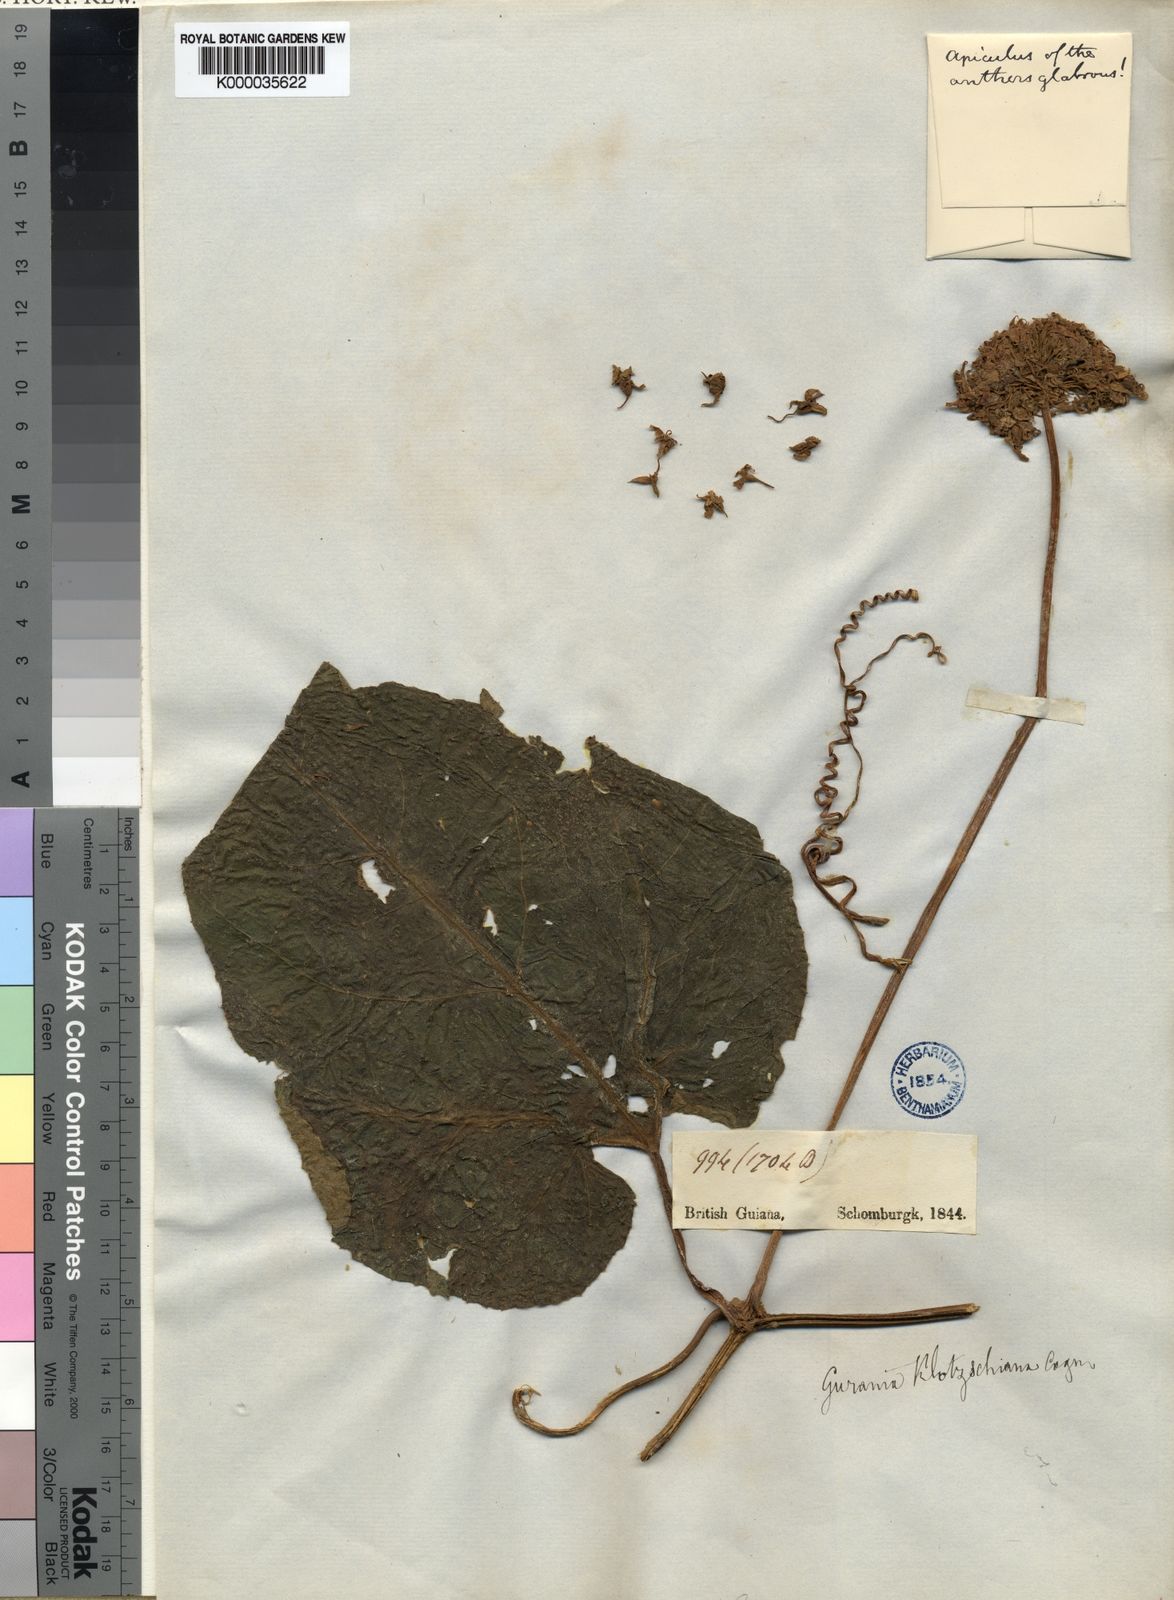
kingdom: Plantae
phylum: Tracheophyta
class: Magnoliopsida
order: Cucurbitales
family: Cucurbitaceae
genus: Gurania
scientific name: Gurania subumbellata
